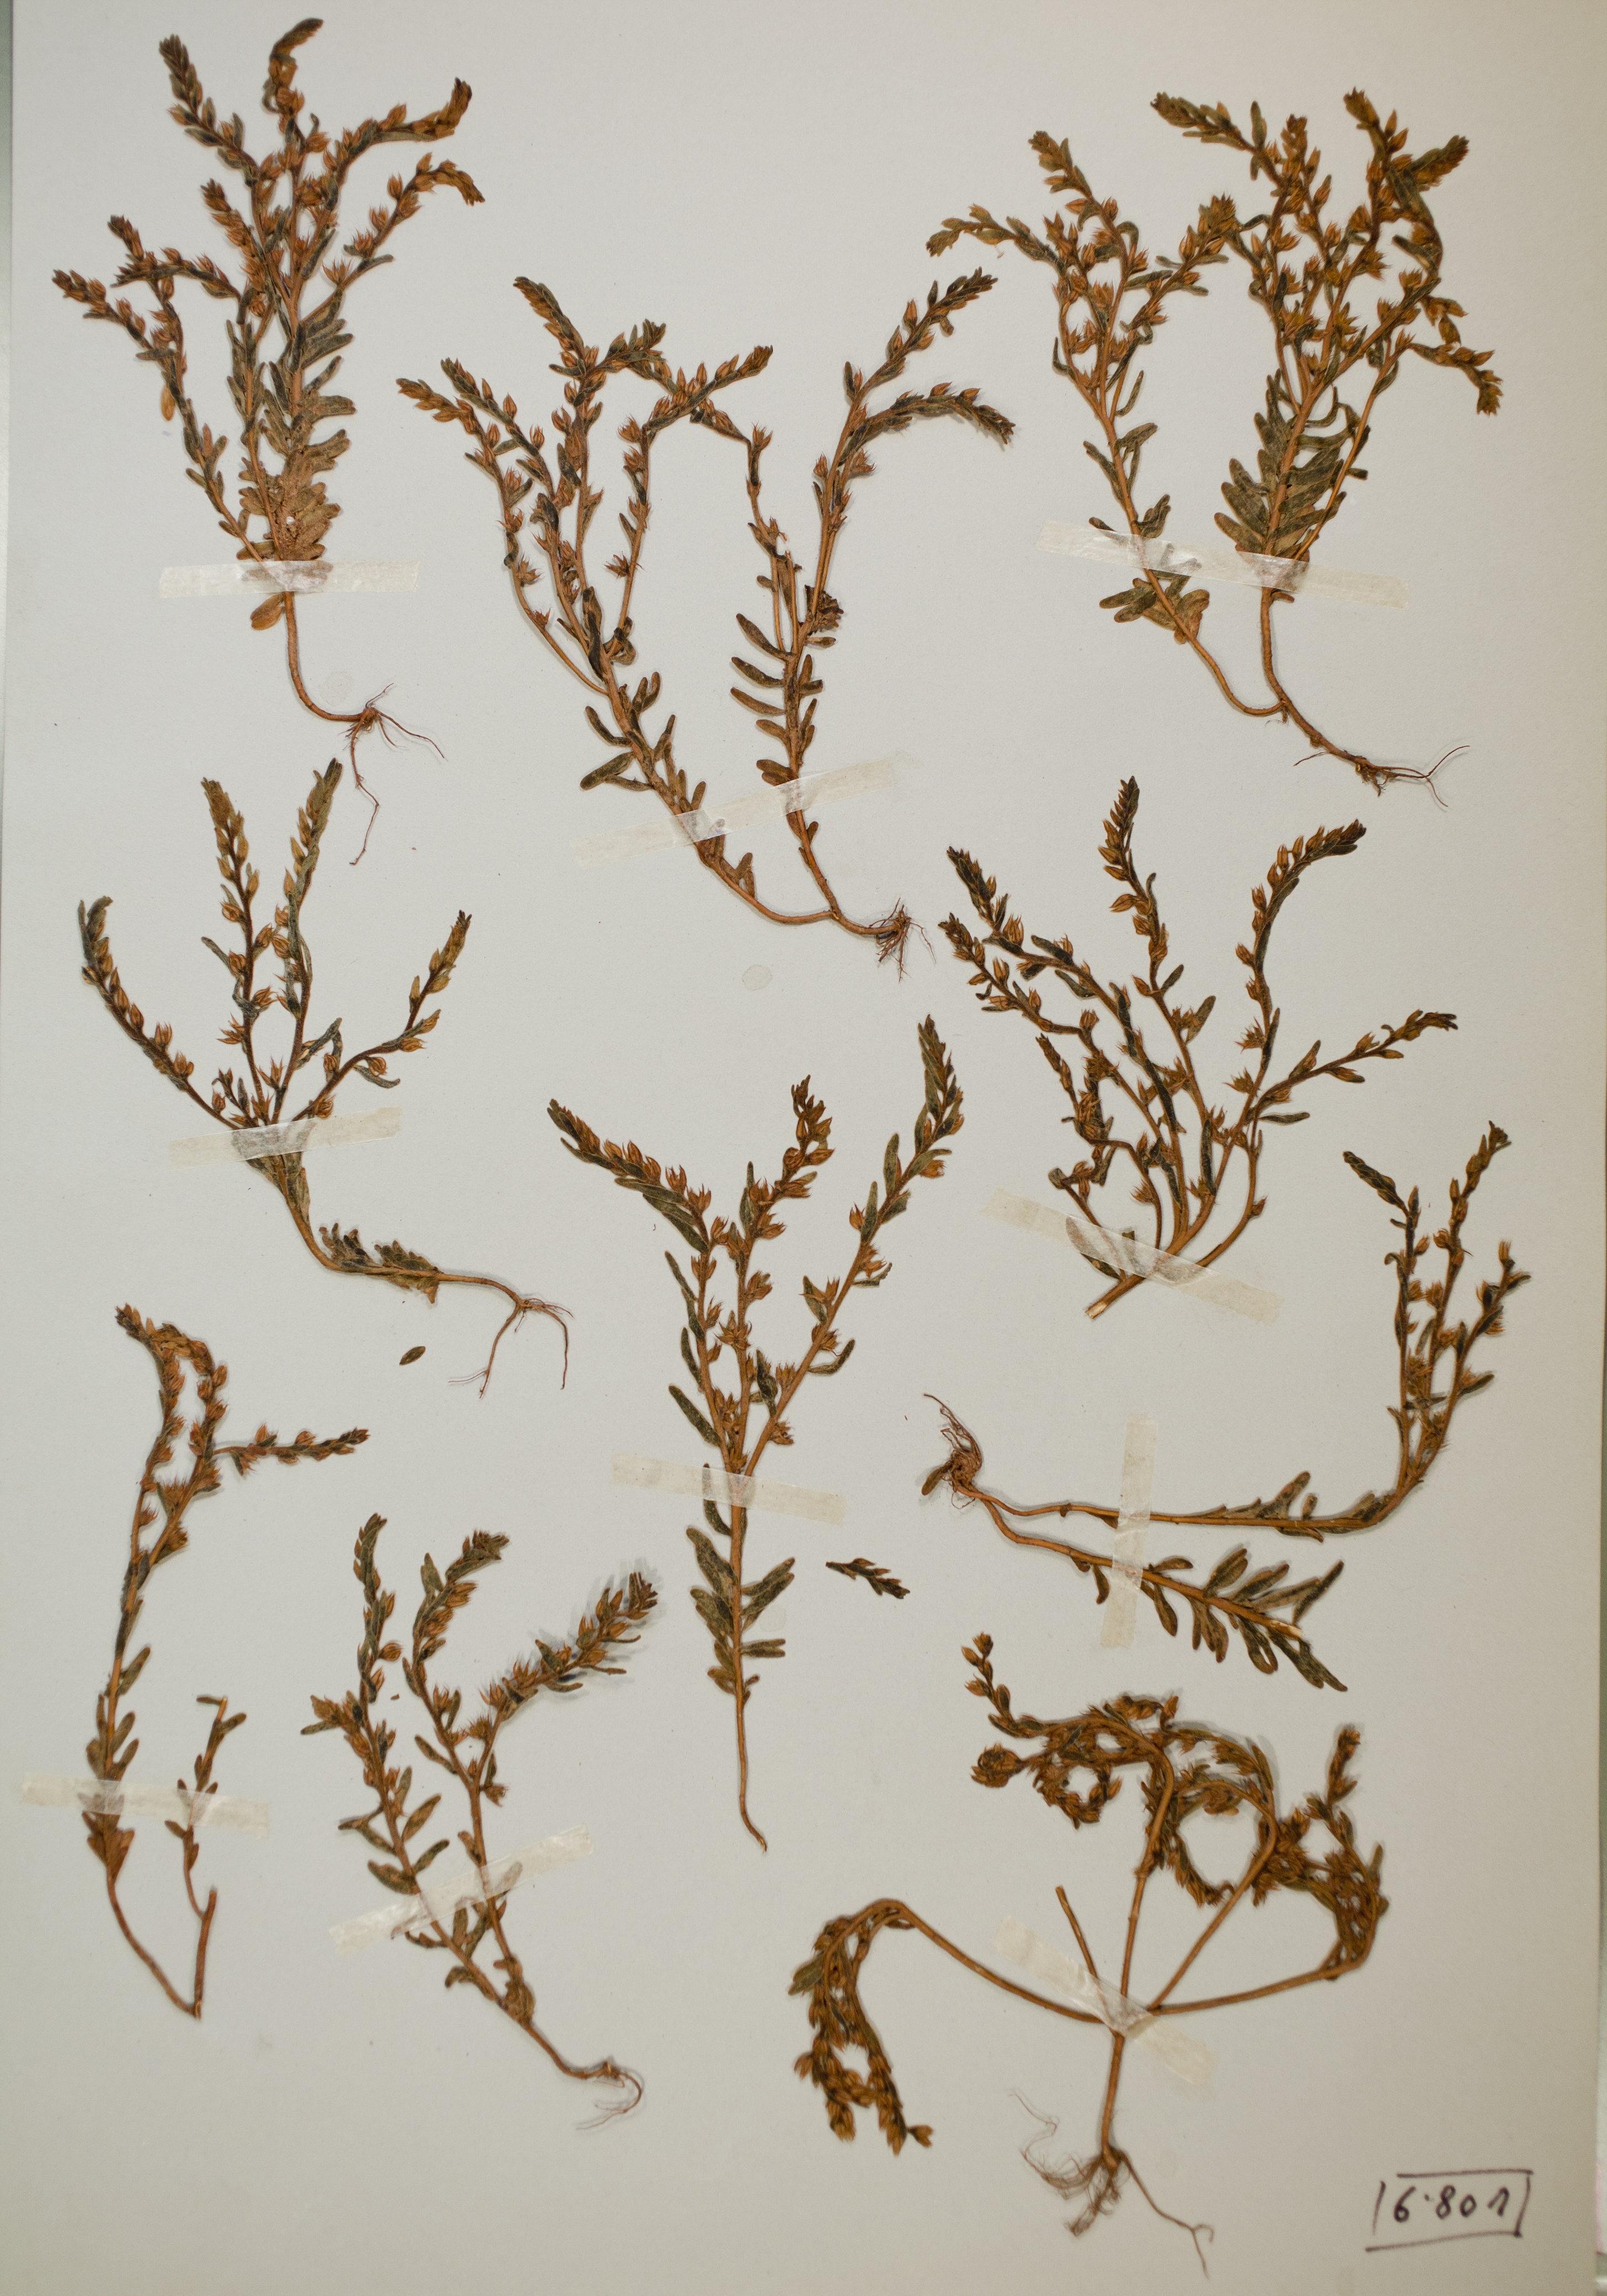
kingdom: Plantae
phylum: Tracheophyta
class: Magnoliopsida
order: Saxifragales
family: Crassulaceae
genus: Sedum
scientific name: Sedum rubens
